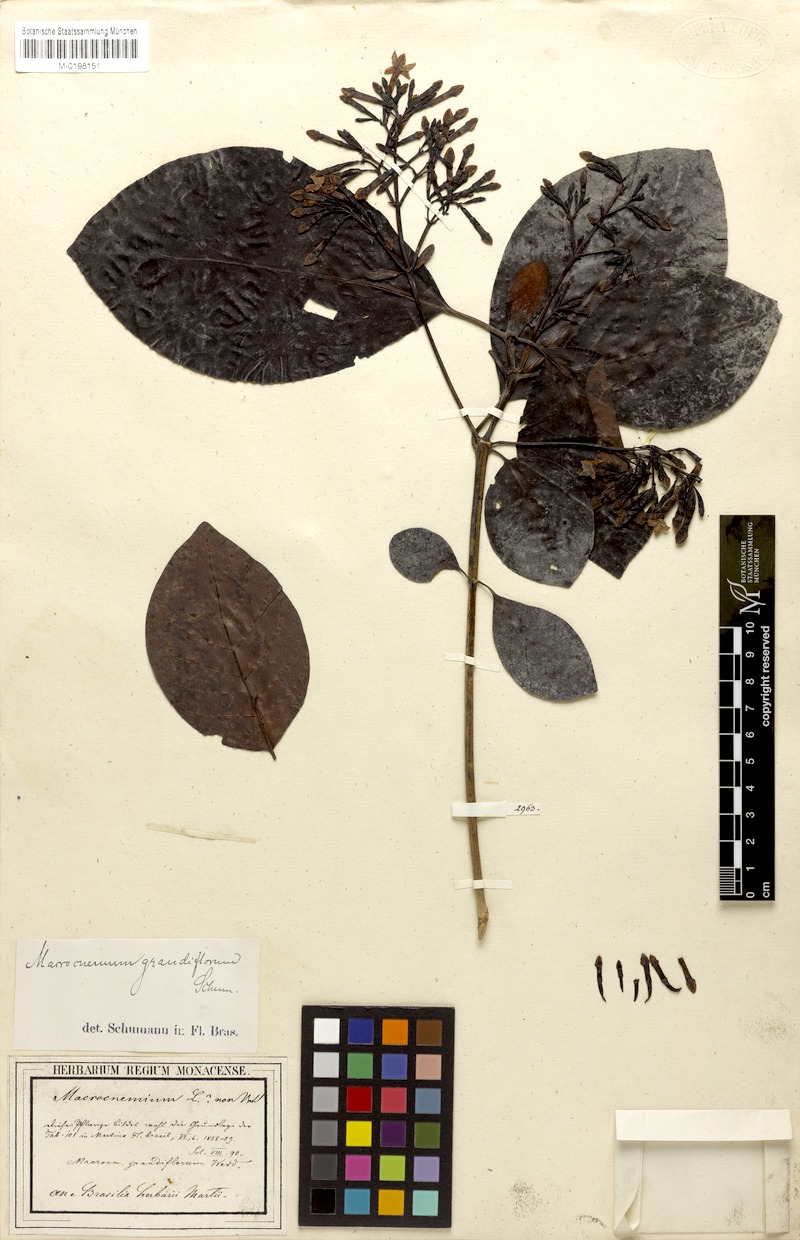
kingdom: Plantae
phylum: Tracheophyta
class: Magnoliopsida
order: Gentianales
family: Rubiaceae
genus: Macrocnemum
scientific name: Macrocnemum grandiflorum
